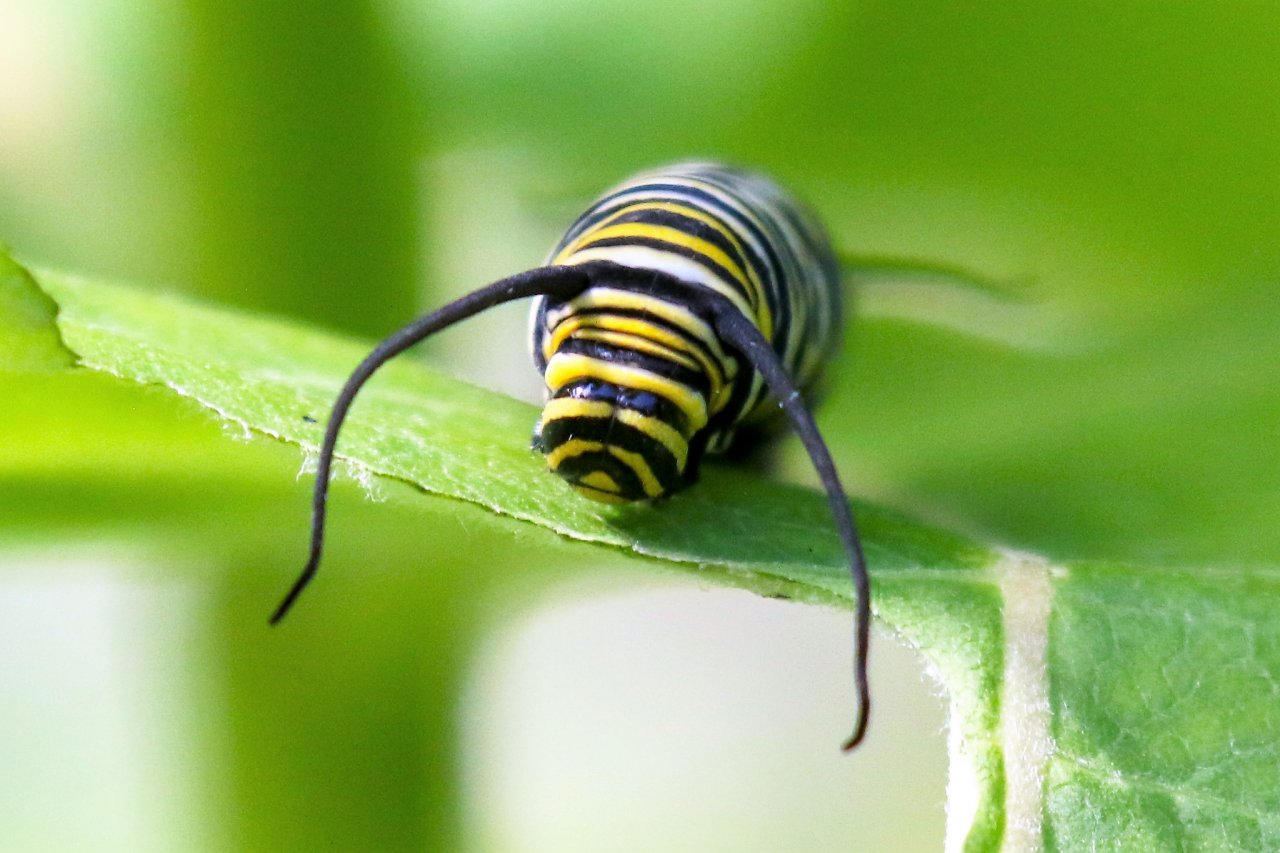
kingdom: Animalia
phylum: Arthropoda
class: Insecta
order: Lepidoptera
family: Nymphalidae
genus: Danaus
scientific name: Danaus plexippus
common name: Monarch
